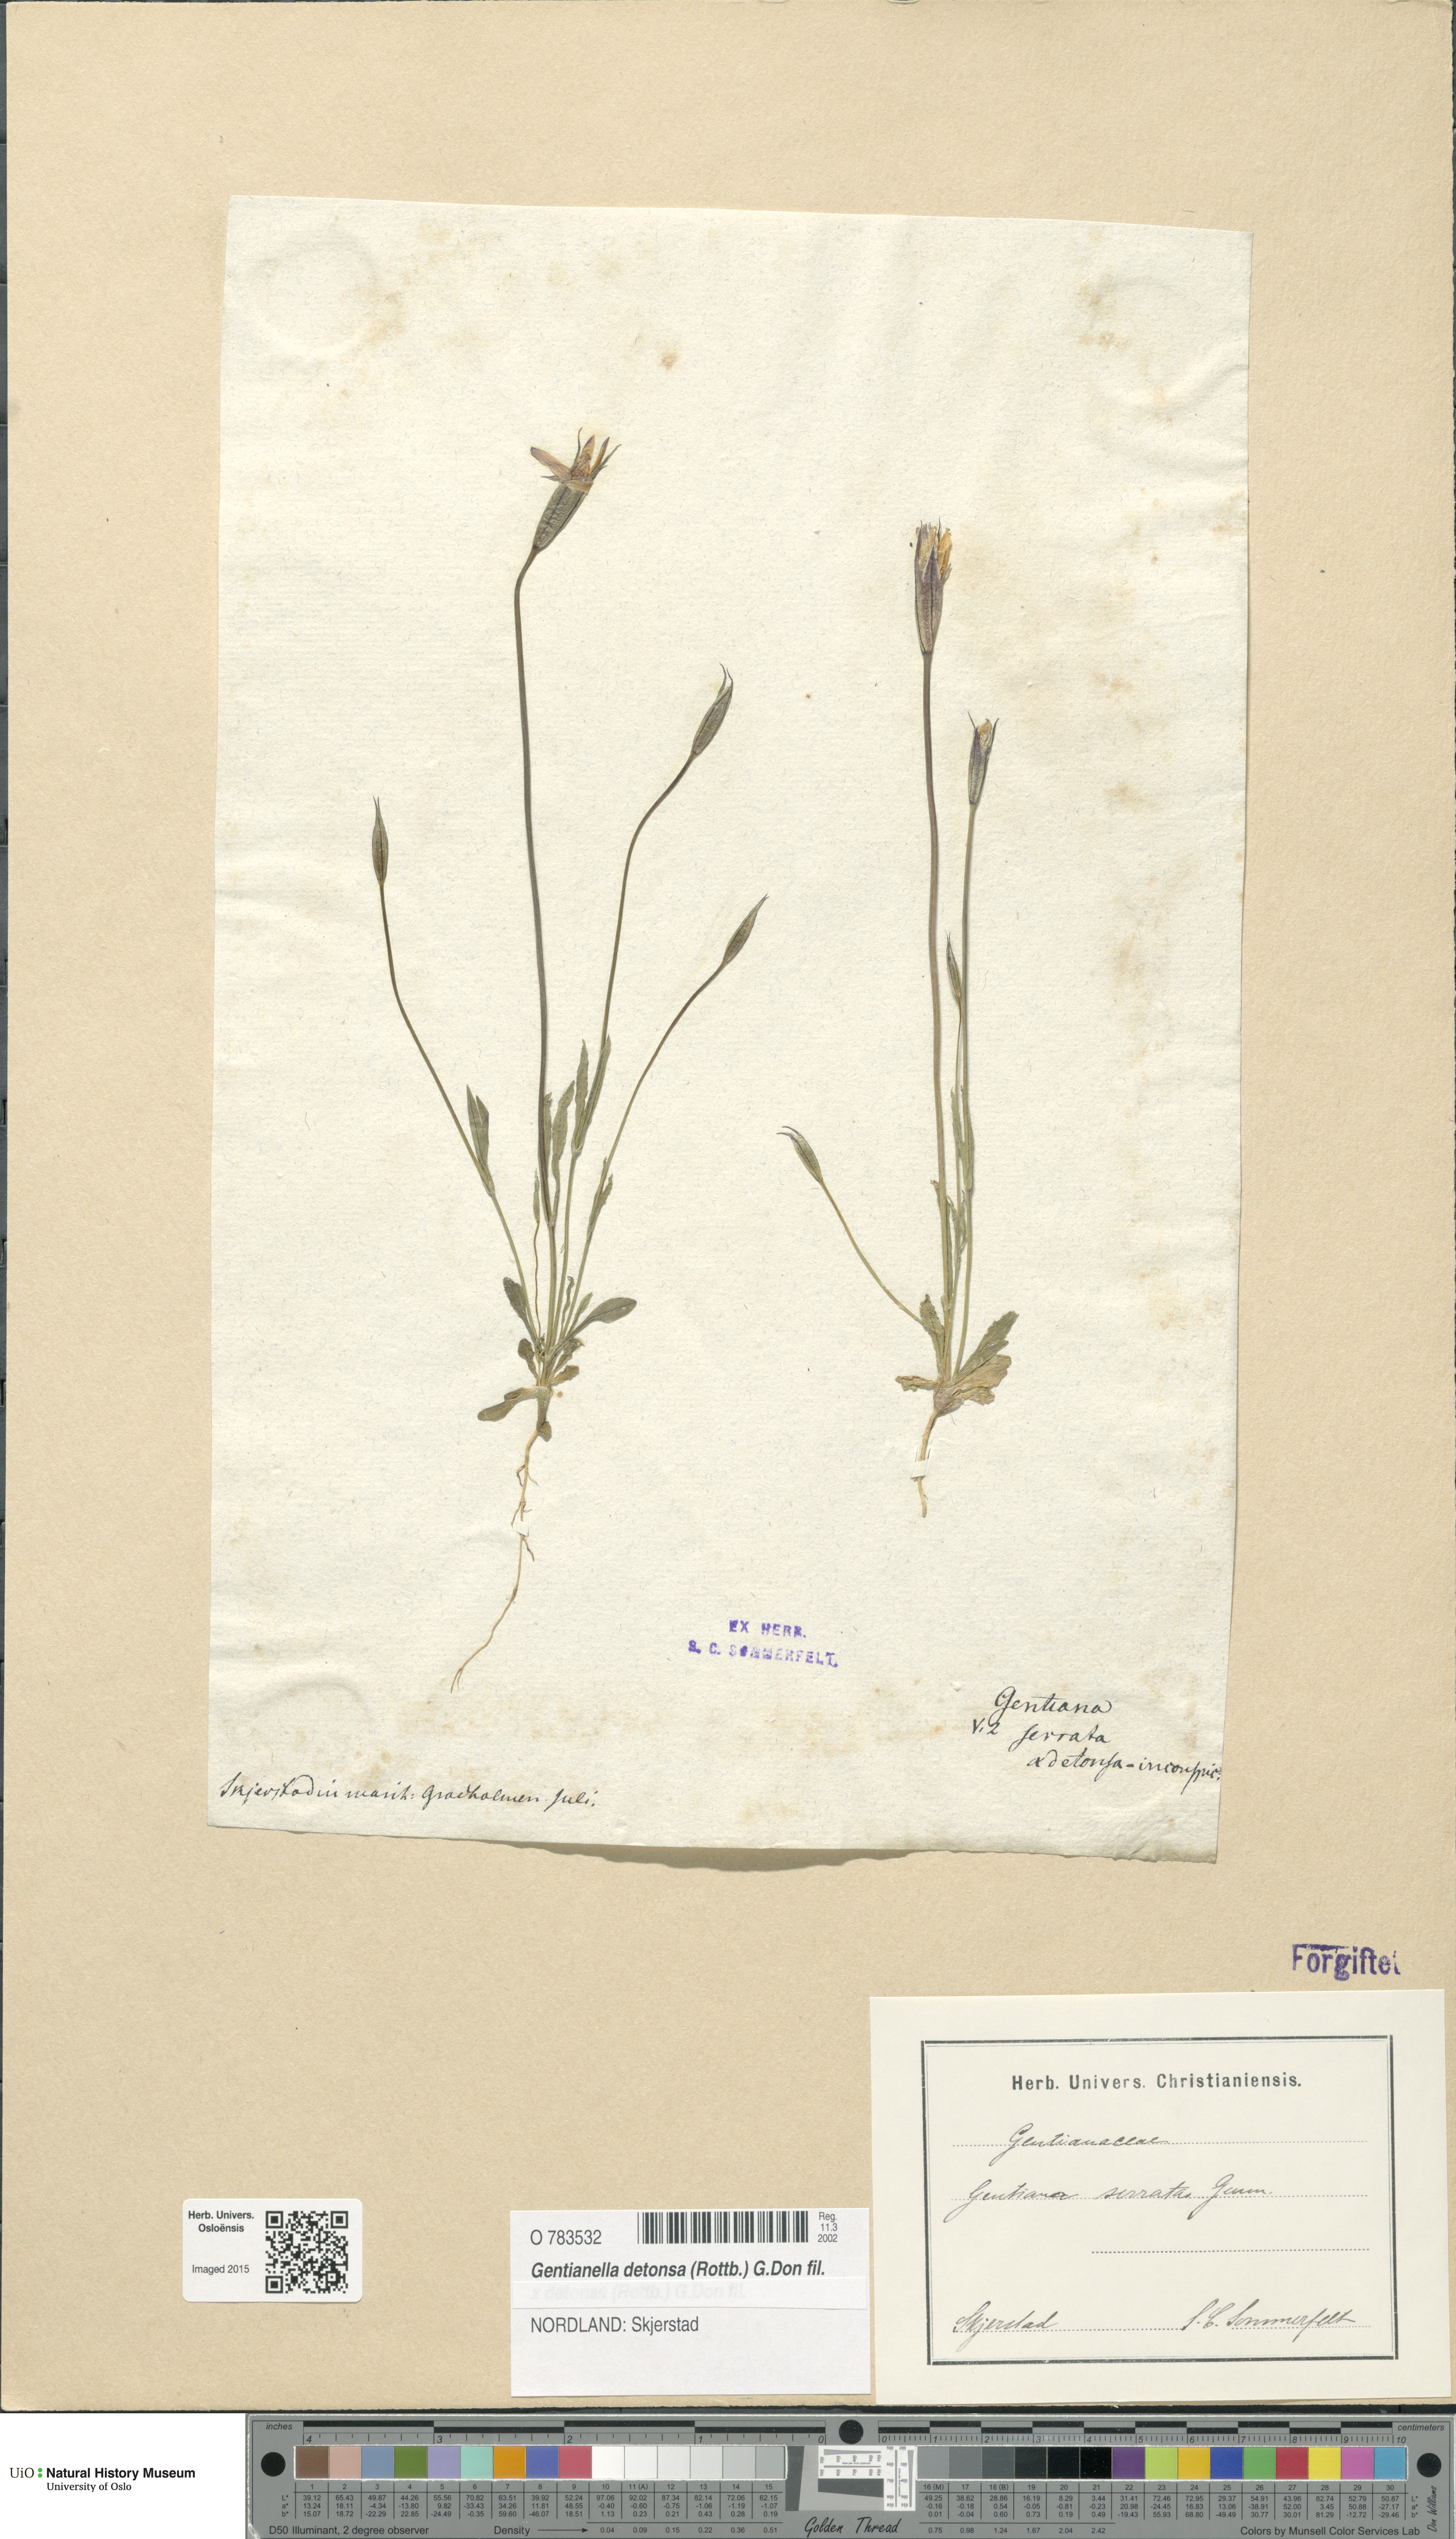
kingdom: Plantae
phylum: Tracheophyta
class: Magnoliopsida
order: Gentianales
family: Gentianaceae
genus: Gentianopsis
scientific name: Gentianopsis detonsa
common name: Fringed-gentian
